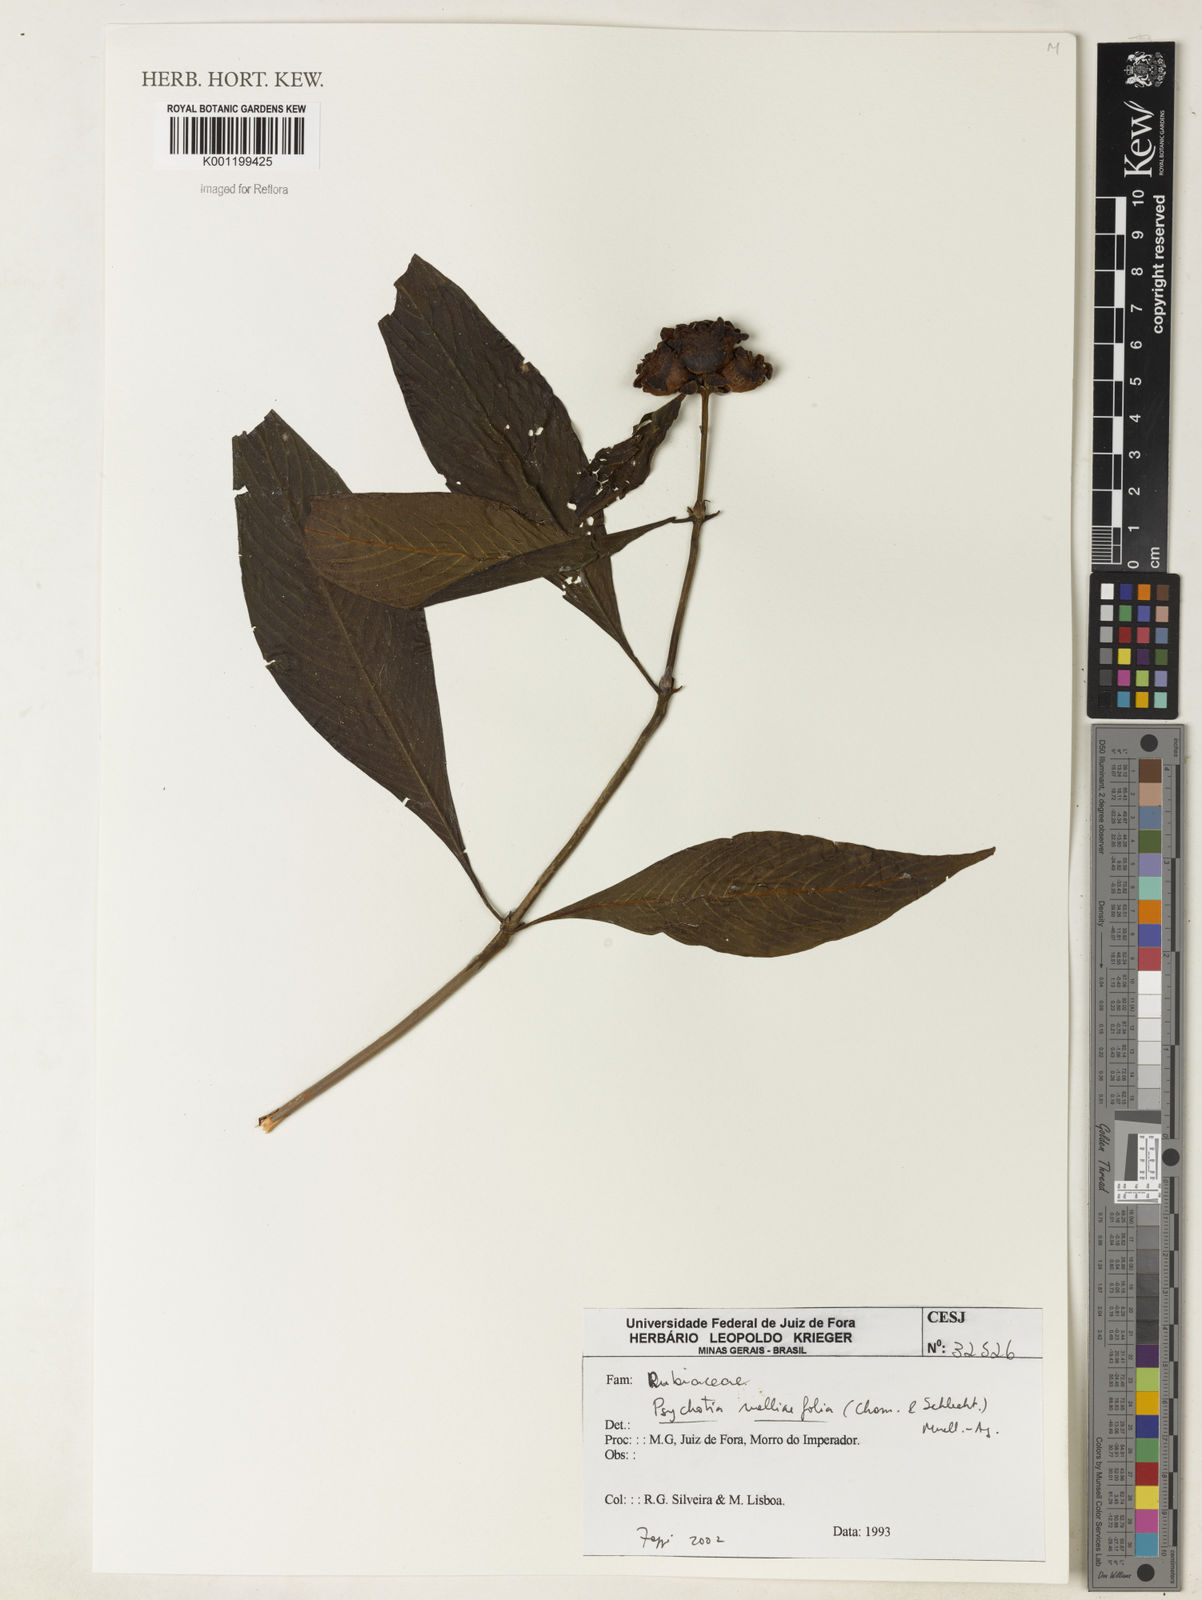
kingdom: Plantae
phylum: Tracheophyta
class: Magnoliopsida
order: Gentianales
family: Rubiaceae
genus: Psychotria
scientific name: Psychotria
